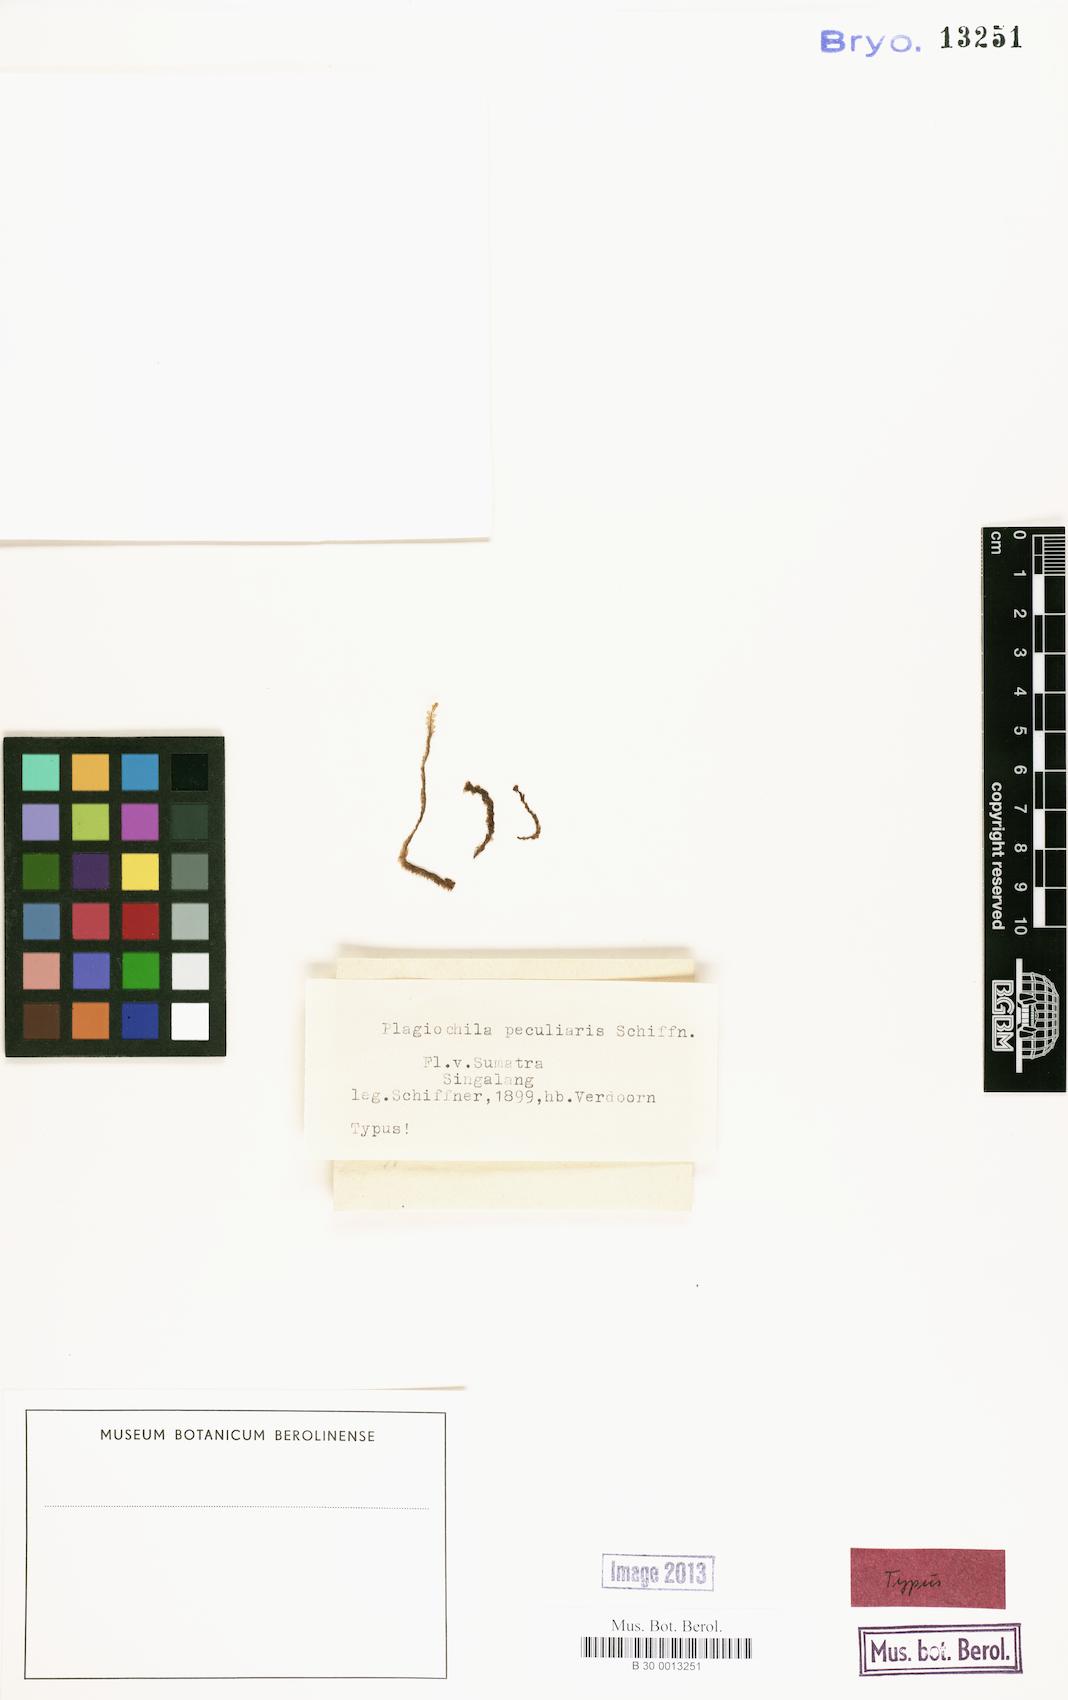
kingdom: Plantae
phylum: Marchantiophyta
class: Jungermanniopsida
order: Jungermanniales
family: Plagiochilaceae
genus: Plagiochila
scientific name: Plagiochila peculiaris
